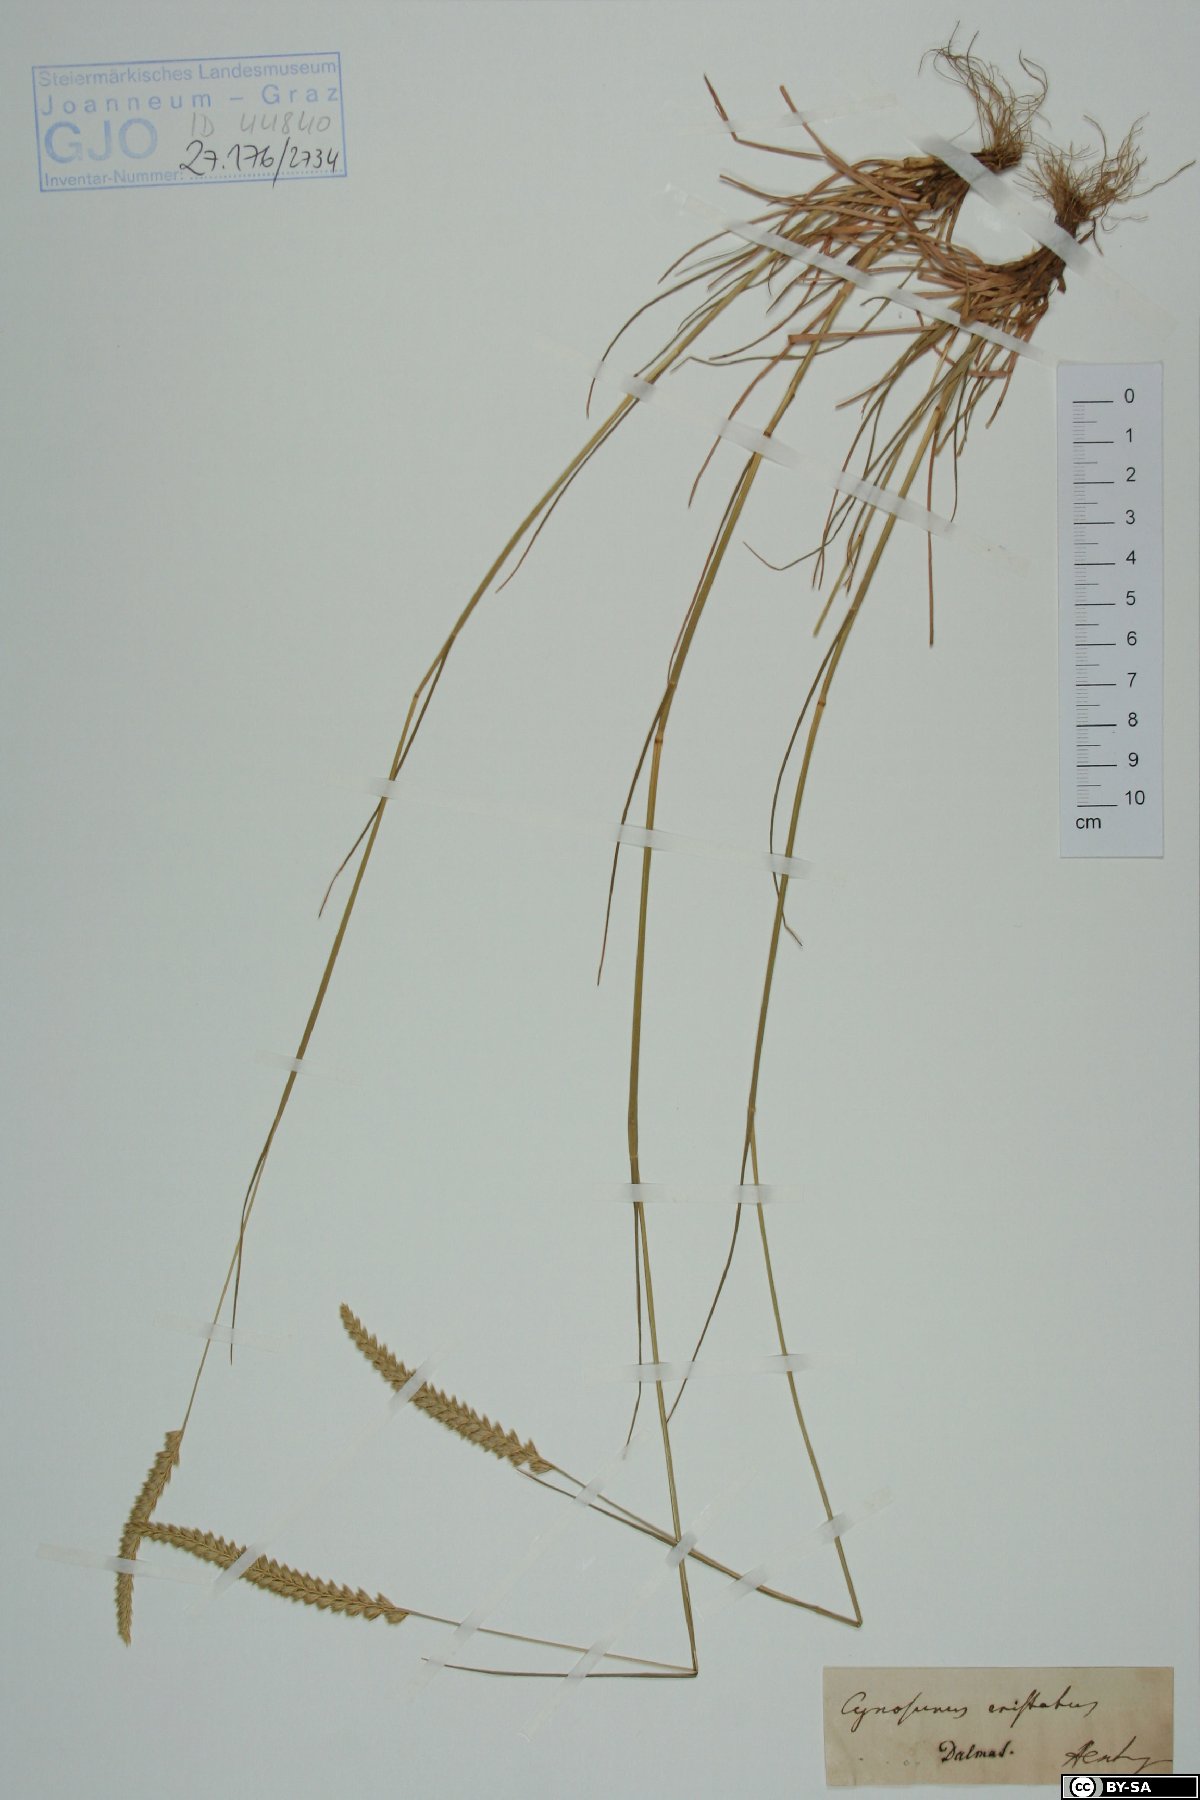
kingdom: Plantae
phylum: Tracheophyta
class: Liliopsida
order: Poales
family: Poaceae
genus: Cynosurus
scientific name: Cynosurus cristatus
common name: Crested dog's-tail
